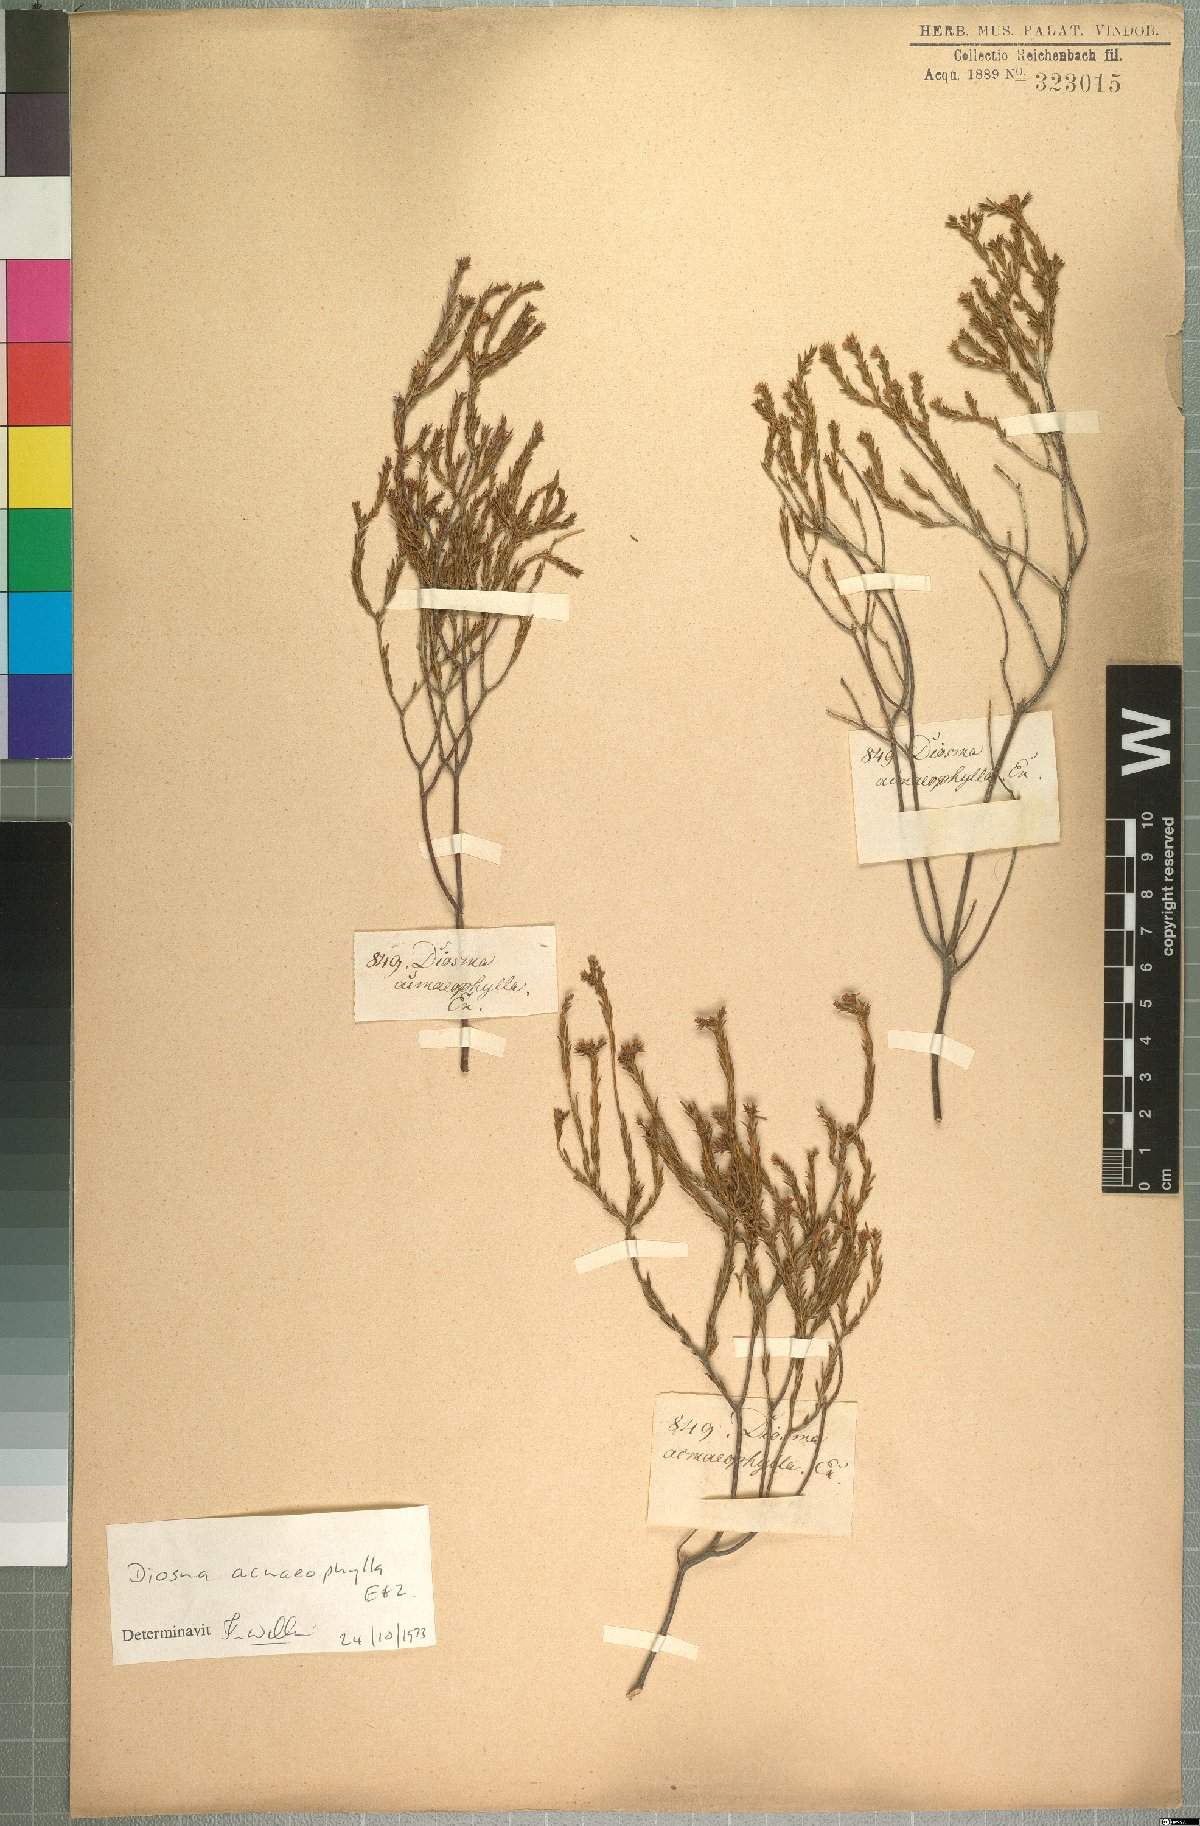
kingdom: Plantae
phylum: Tracheophyta
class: Magnoliopsida
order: Sapindales
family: Rutaceae
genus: Diosma
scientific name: Diosma acmaeophylla
